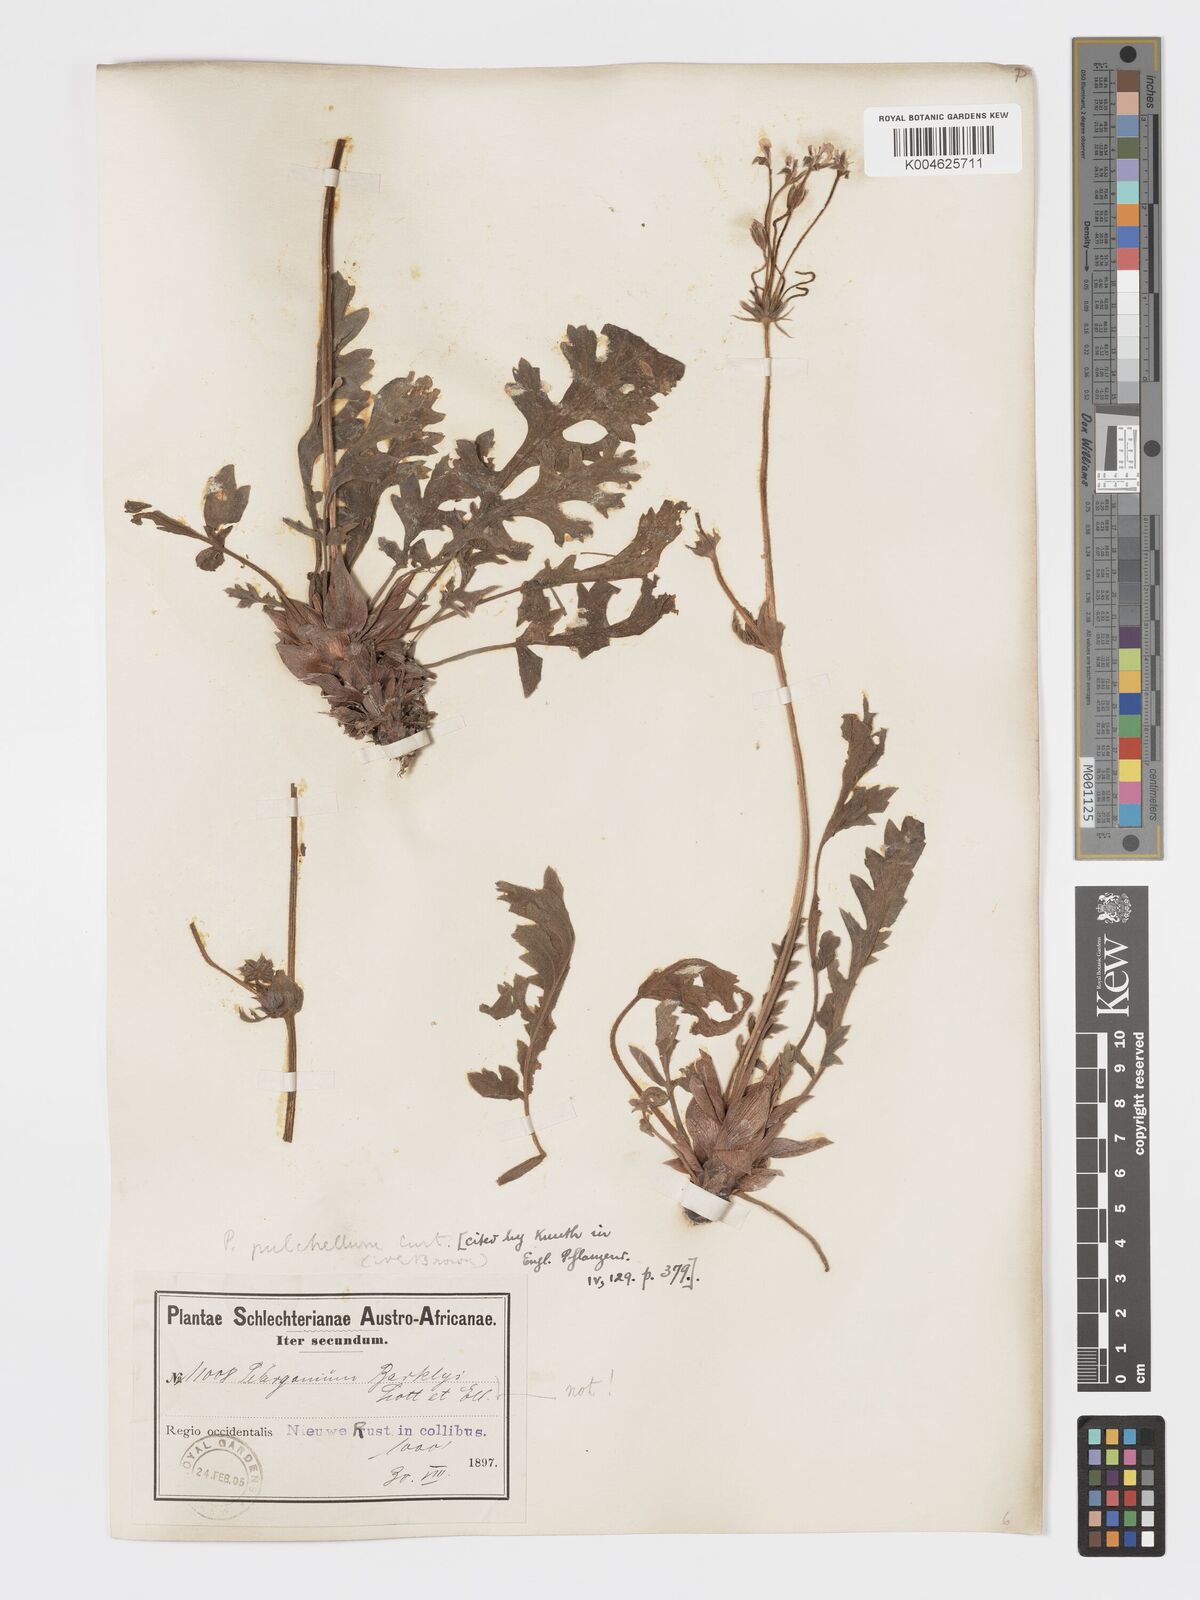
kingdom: Plantae
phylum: Tracheophyta
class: Magnoliopsida
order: Geraniales
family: Geraniaceae
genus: Pelargonium
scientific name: Pelargonium
